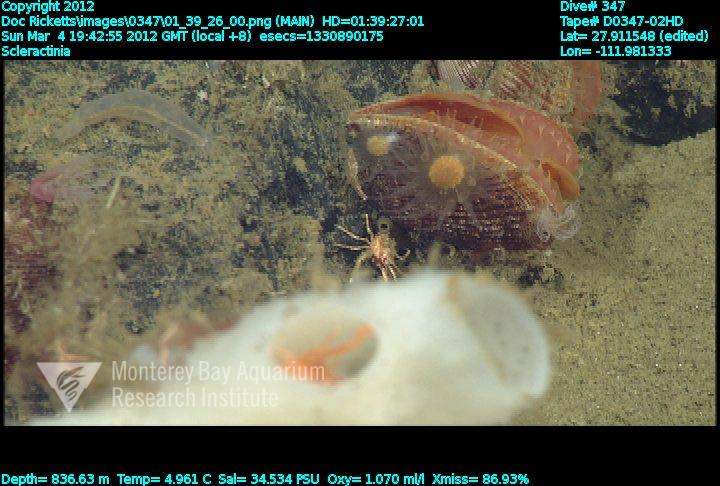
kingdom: Animalia
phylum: Cnidaria
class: Anthozoa
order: Scleractinia
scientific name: Scleractinia
